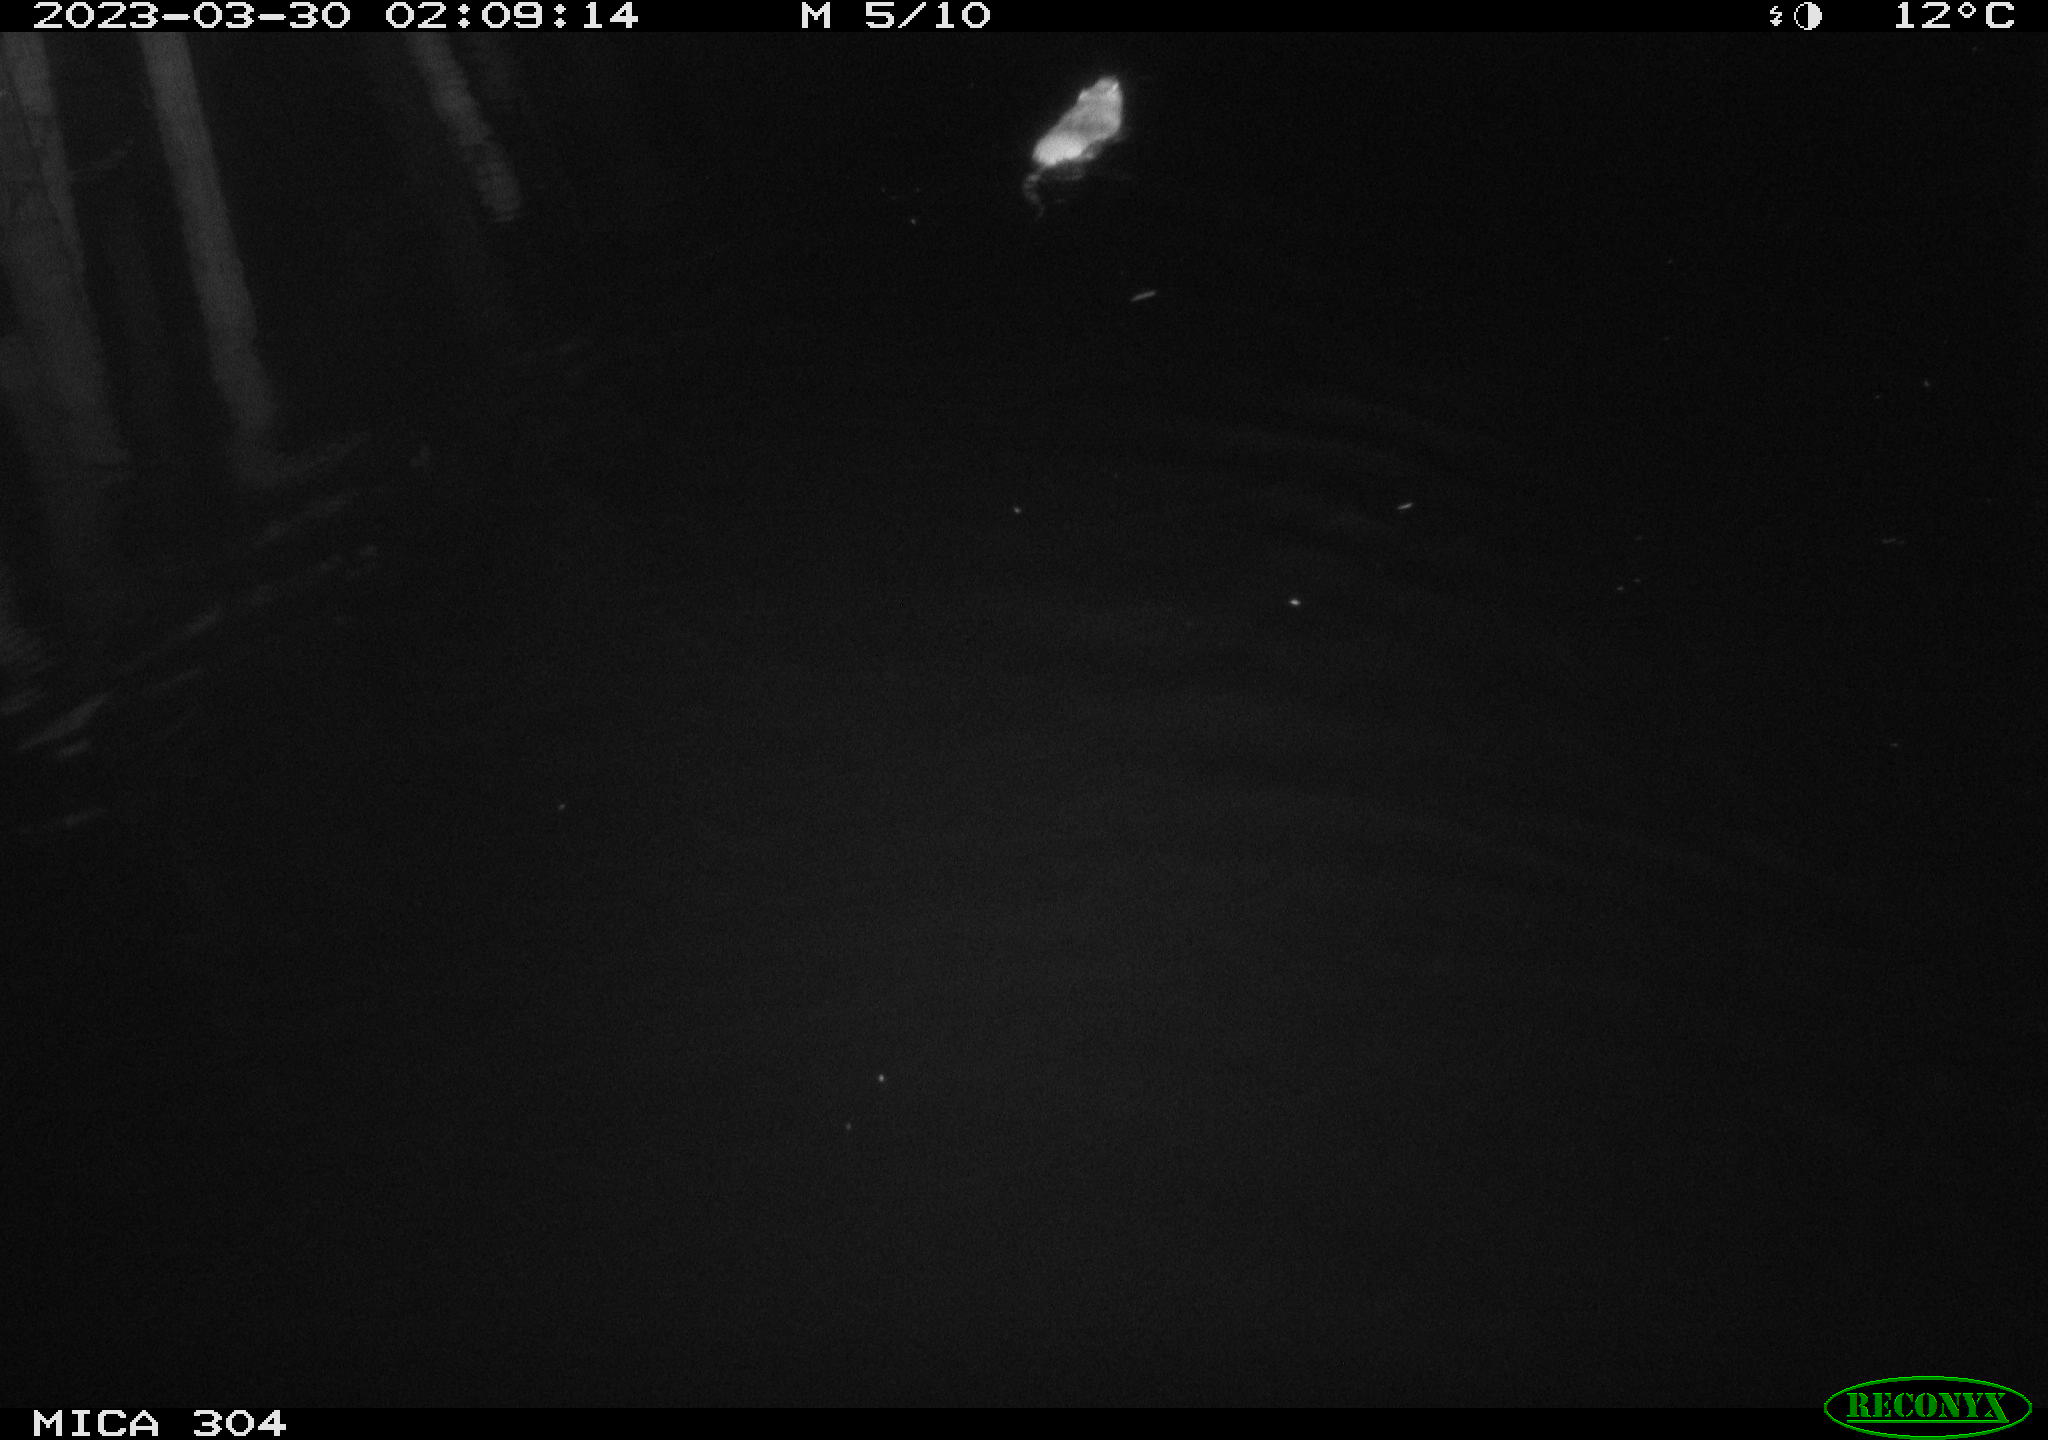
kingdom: Animalia
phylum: Chordata
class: Mammalia
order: Rodentia
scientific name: Rodentia
